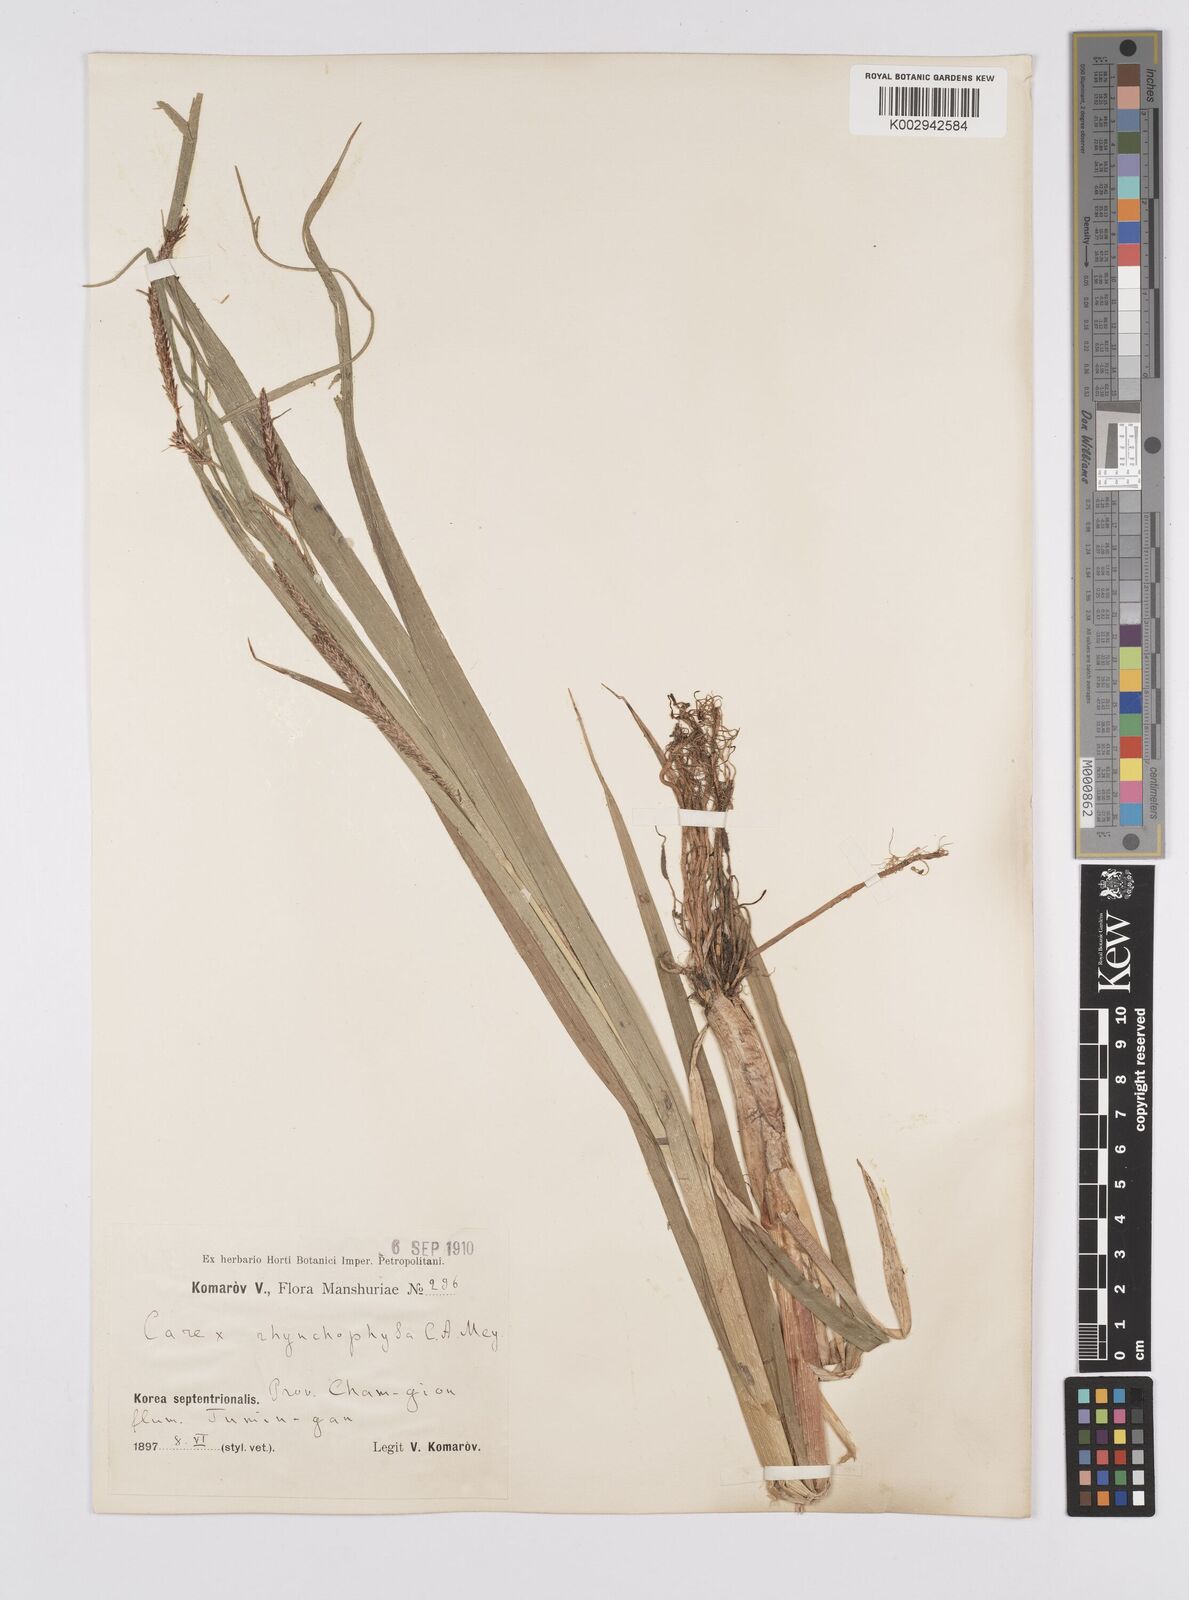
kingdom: Plantae
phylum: Tracheophyta
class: Liliopsida
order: Poales
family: Cyperaceae
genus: Carex
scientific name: Carex utriculata
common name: Beaked sedge
